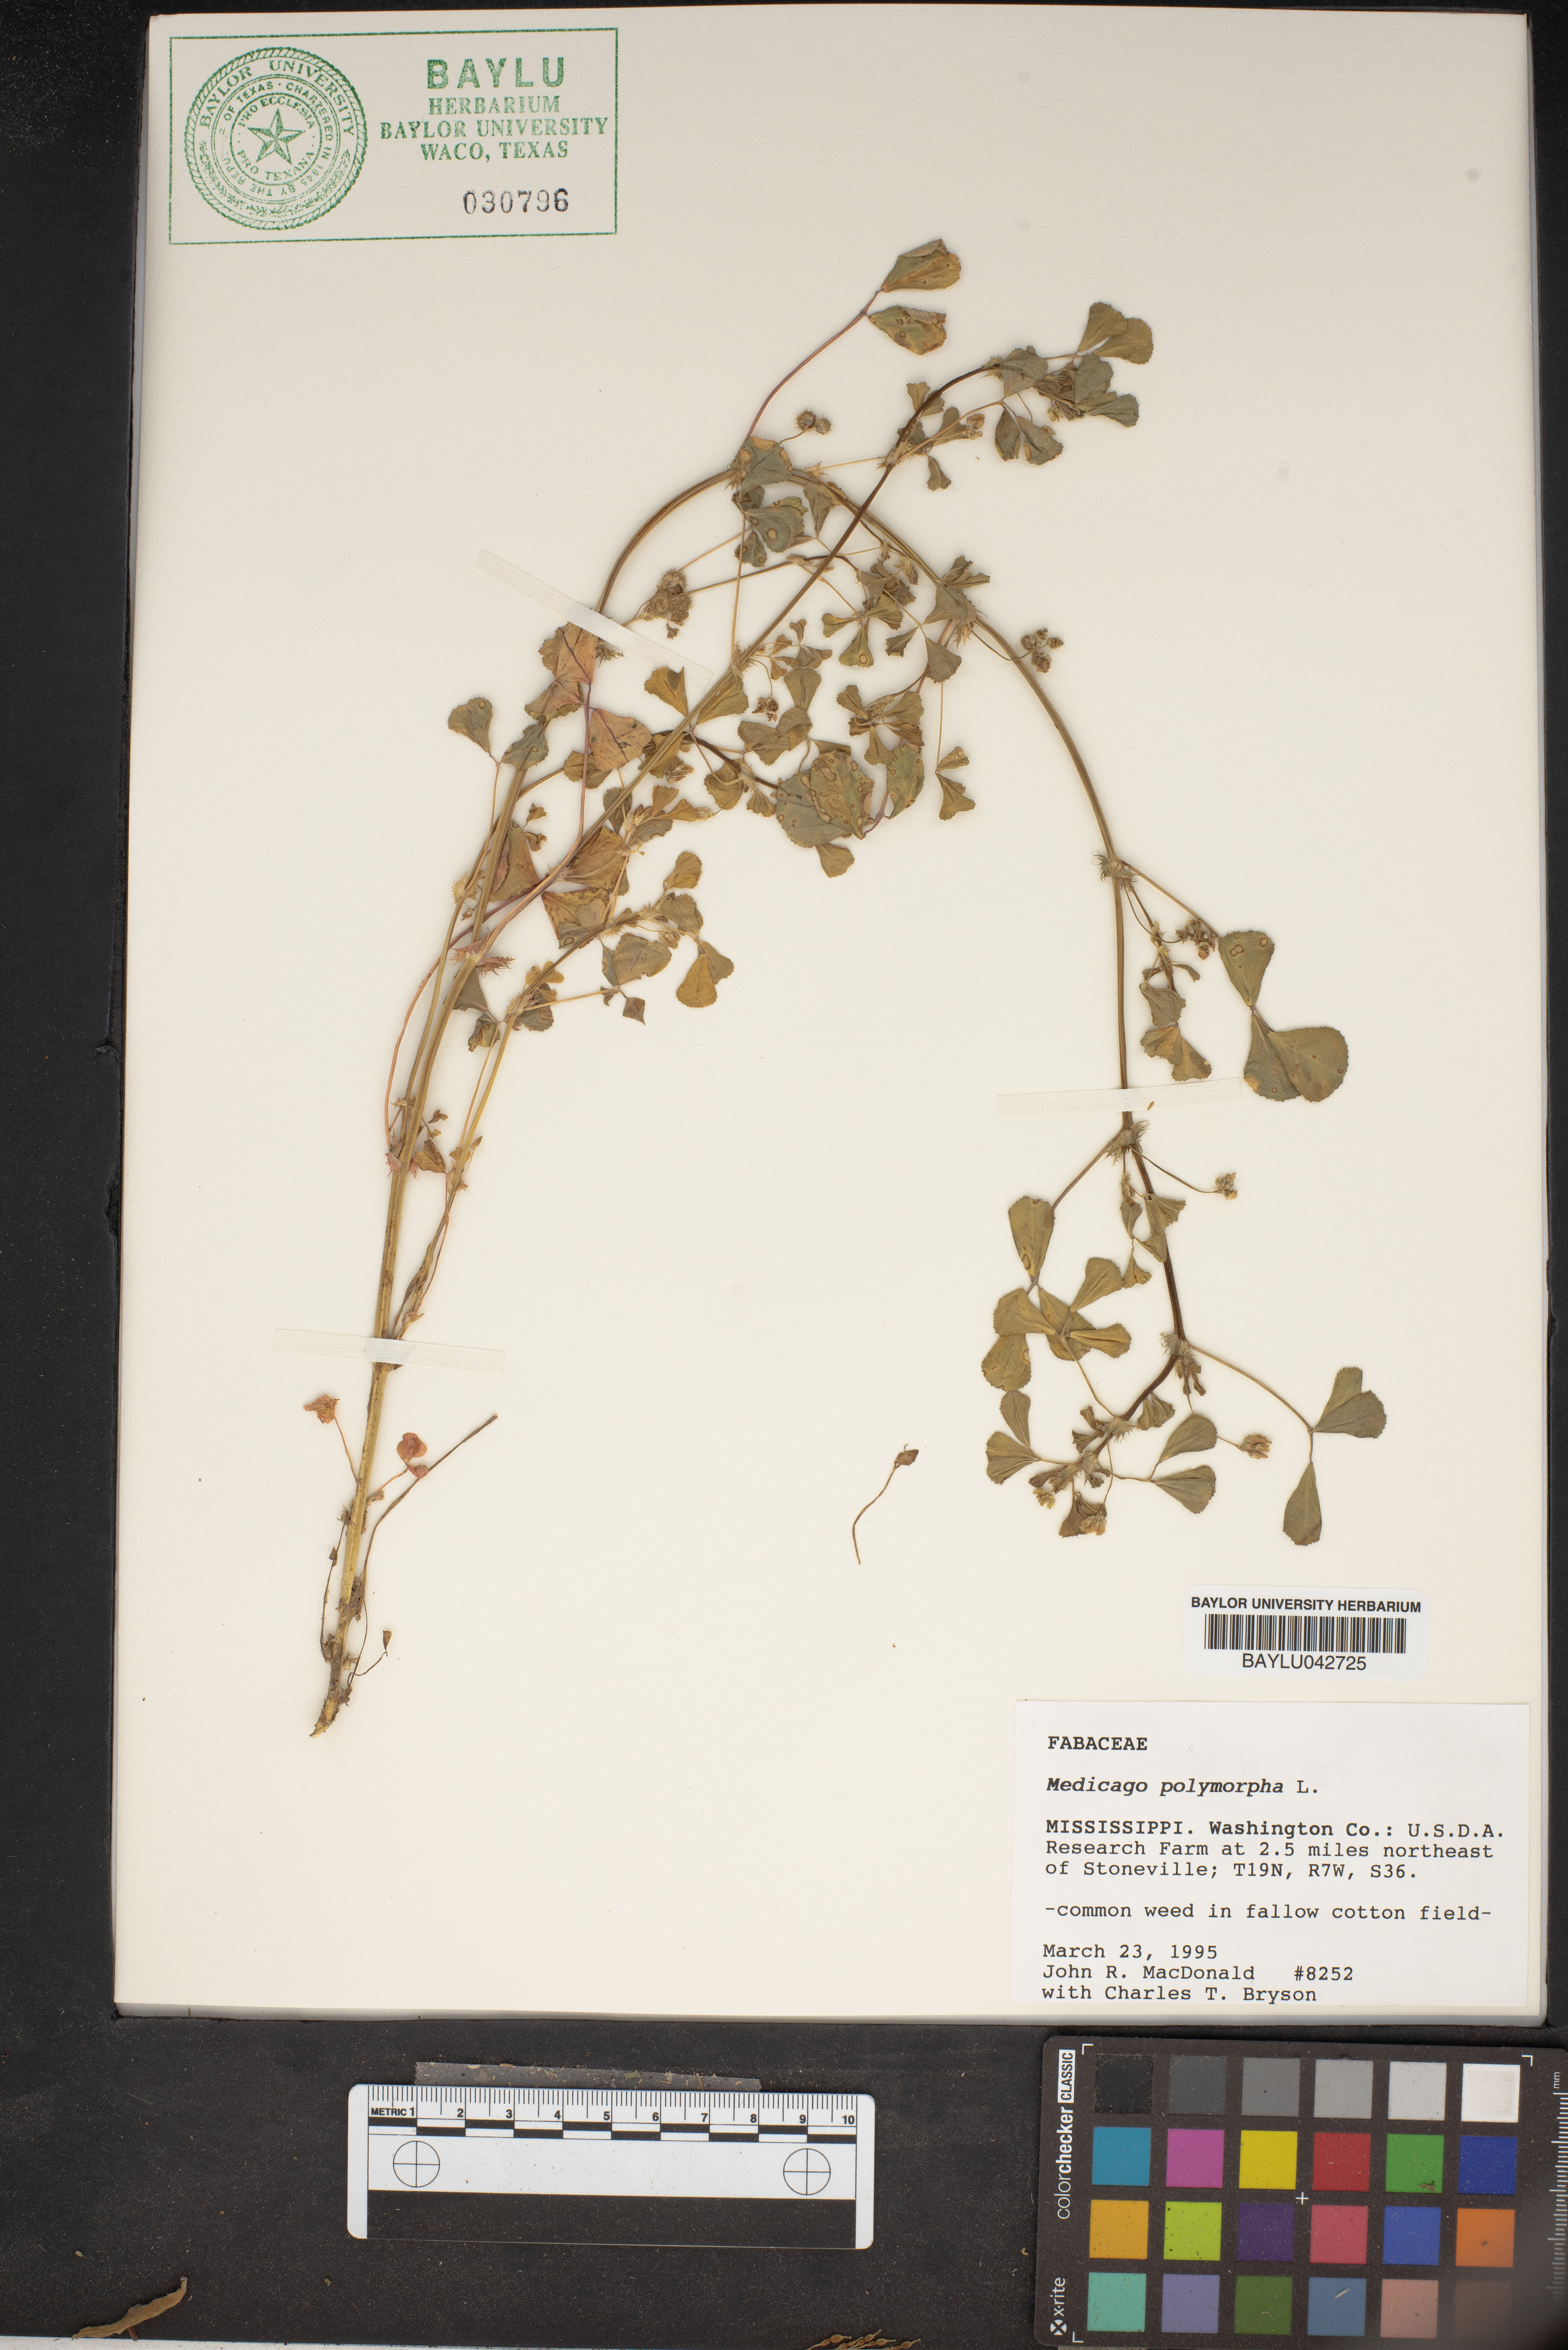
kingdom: Plantae
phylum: Tracheophyta
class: Magnoliopsida
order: Fabales
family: Fabaceae
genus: Medicago
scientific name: Medicago polymorpha
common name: Burclover
